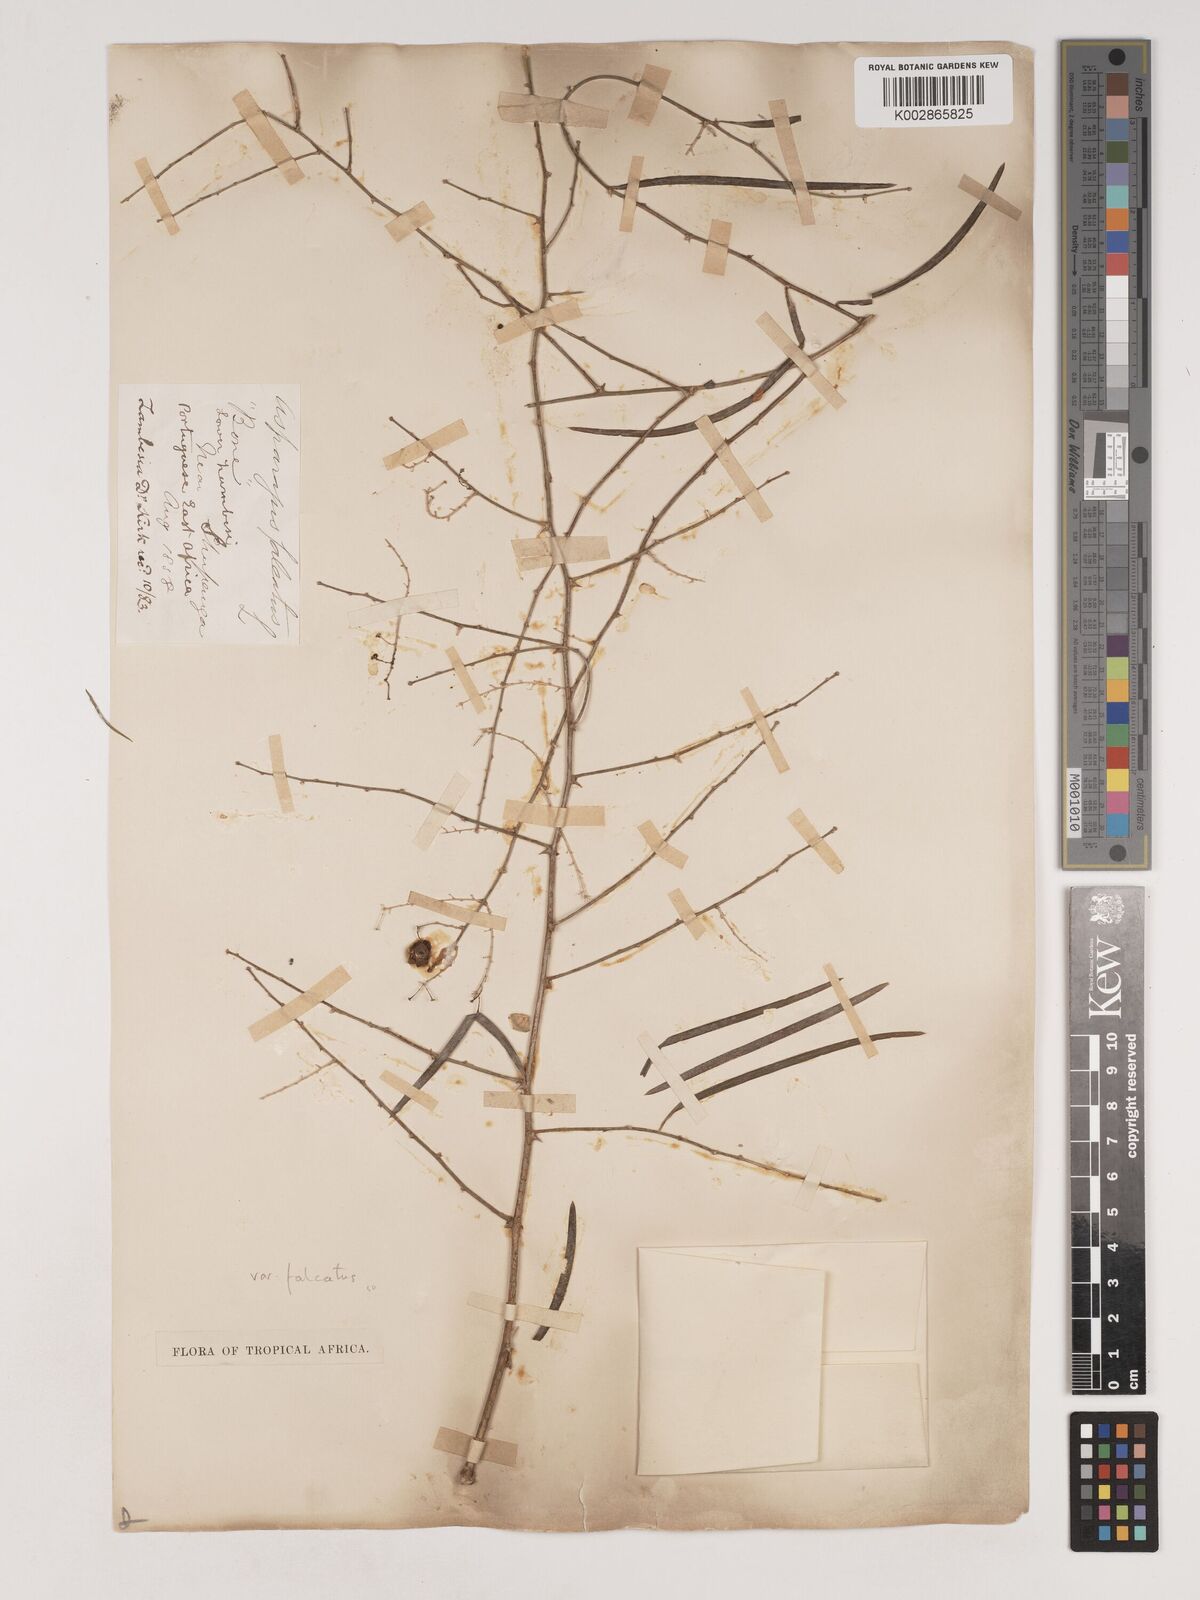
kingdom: Plantae
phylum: Tracheophyta
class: Liliopsida
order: Asparagales
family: Asparagaceae
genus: Asparagus
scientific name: Asparagus falcatus
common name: Asparagus
